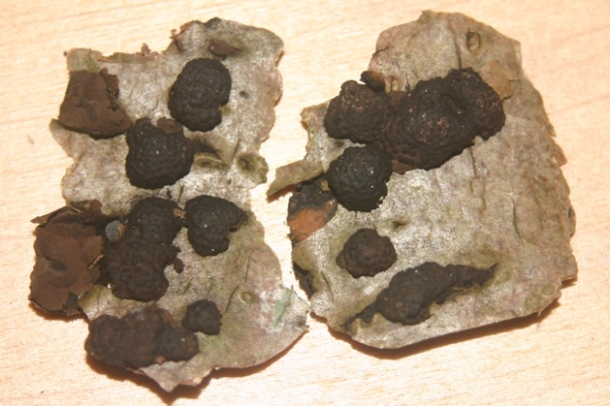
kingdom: Fungi
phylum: Ascomycota
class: Sordariomycetes
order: Xylariales
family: Hypoxylaceae
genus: Jackrogersella
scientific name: Jackrogersella multiformis
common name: foranderlig kulbær
